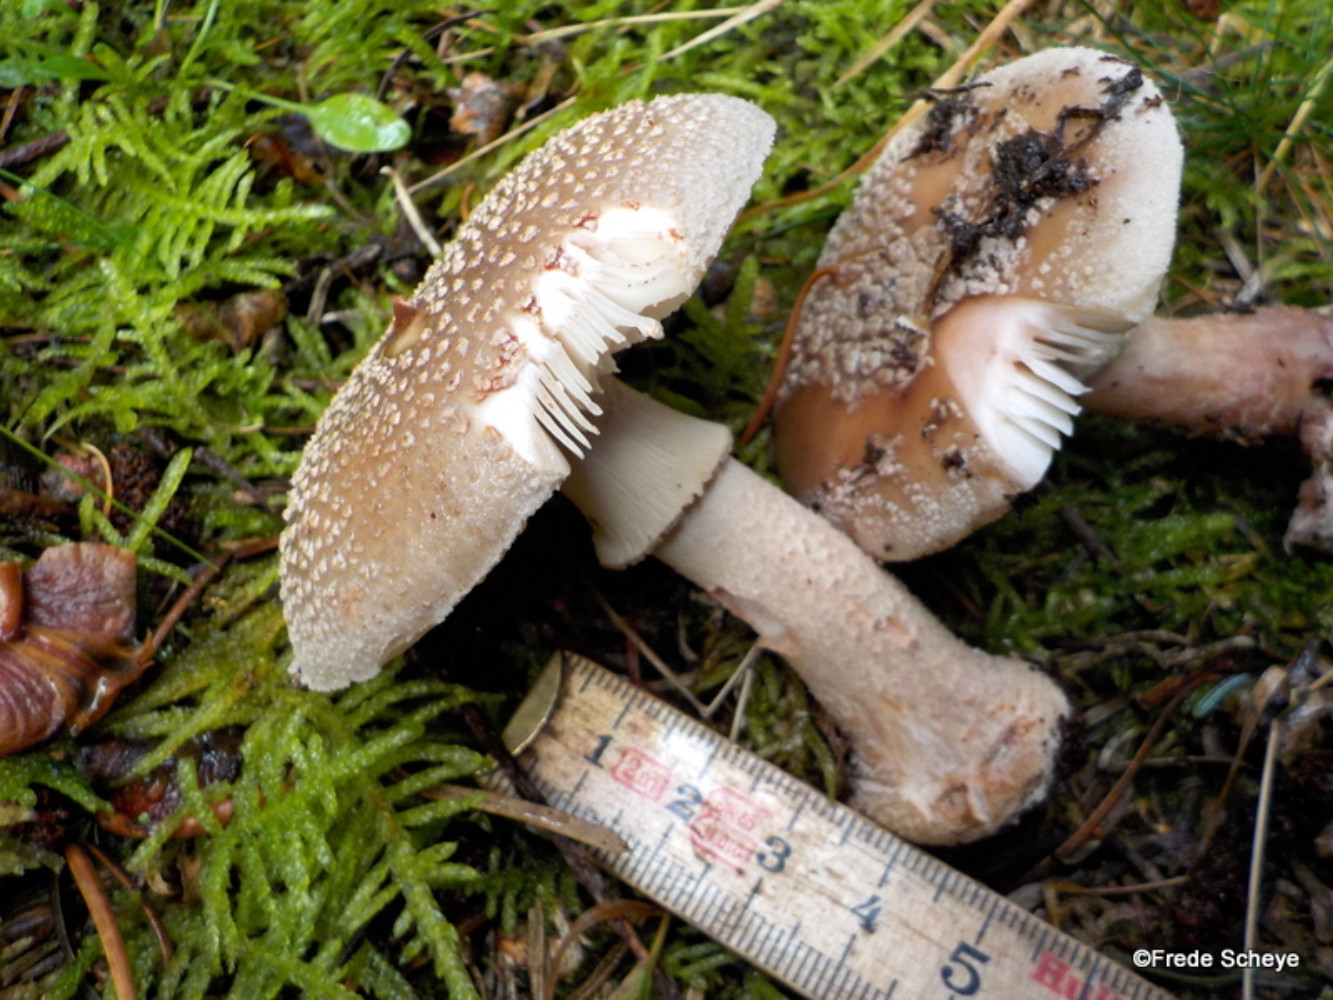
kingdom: Fungi
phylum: Basidiomycota
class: Agaricomycetes
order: Agaricales
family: Amanitaceae
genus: Amanita
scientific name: Amanita rubescens
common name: rødmende fluesvamp
